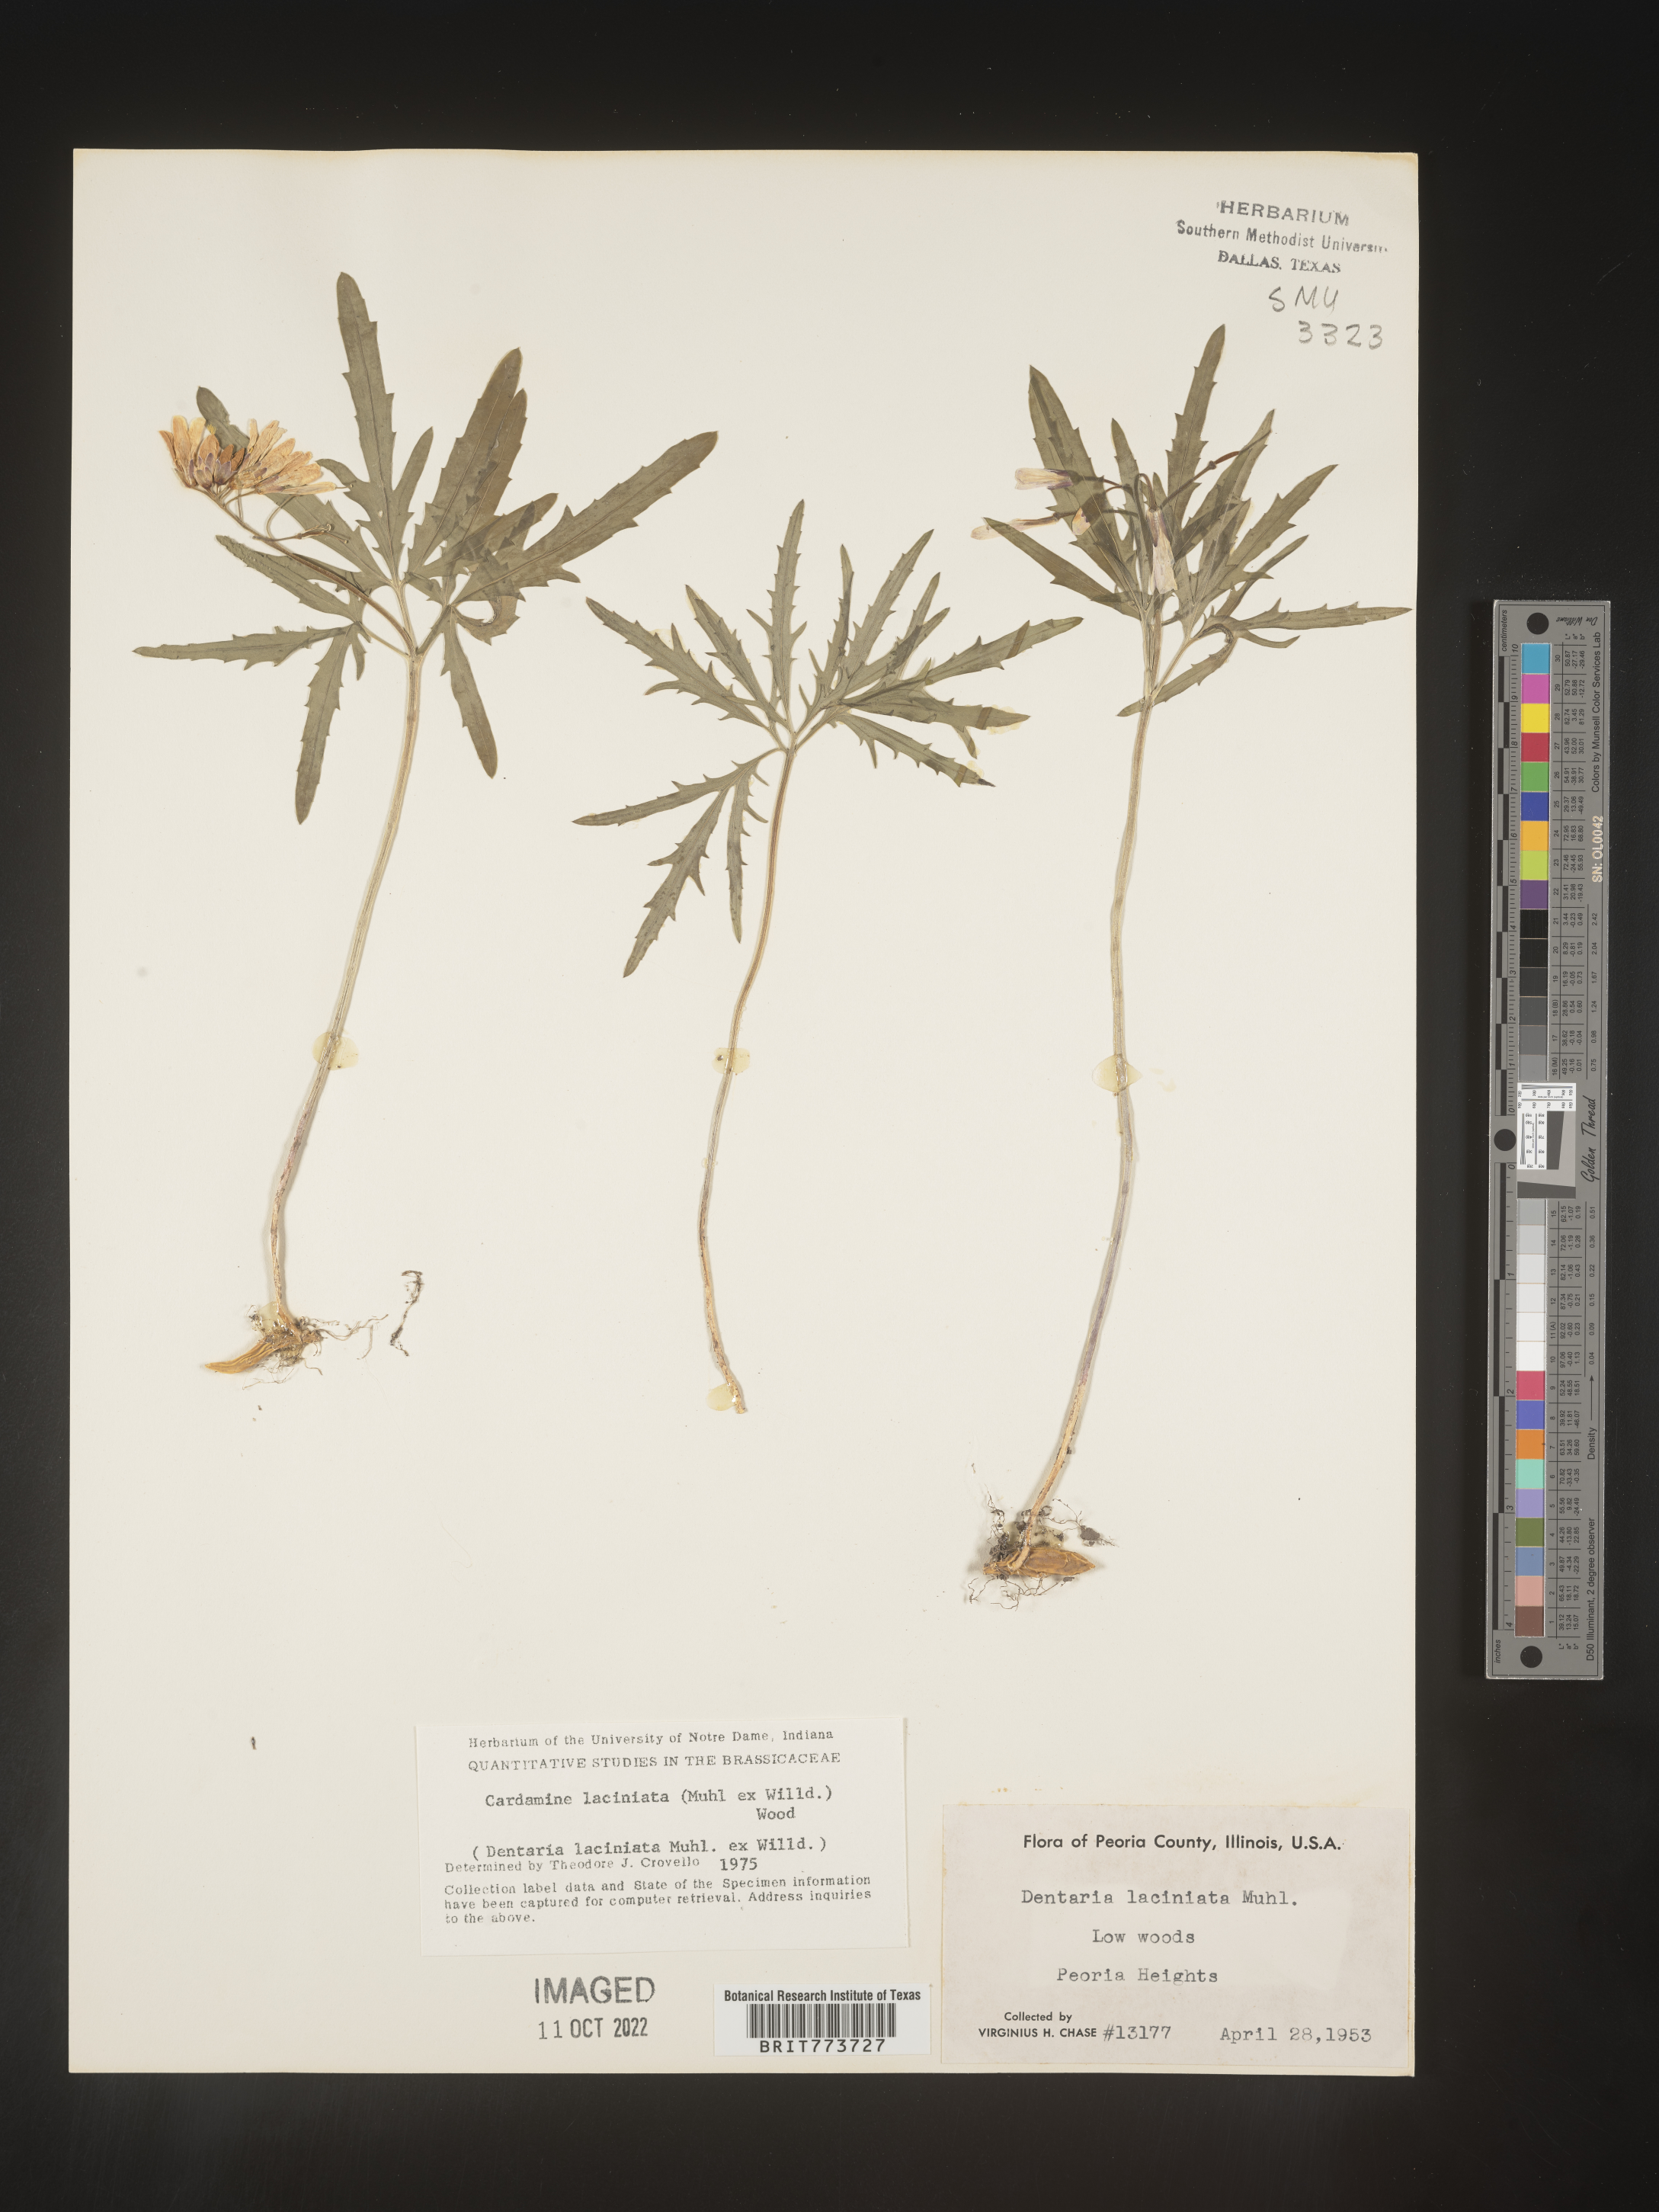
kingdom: Plantae
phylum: Tracheophyta
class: Magnoliopsida
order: Brassicales
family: Brassicaceae
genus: Rorippa
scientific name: Rorippa laciniata
